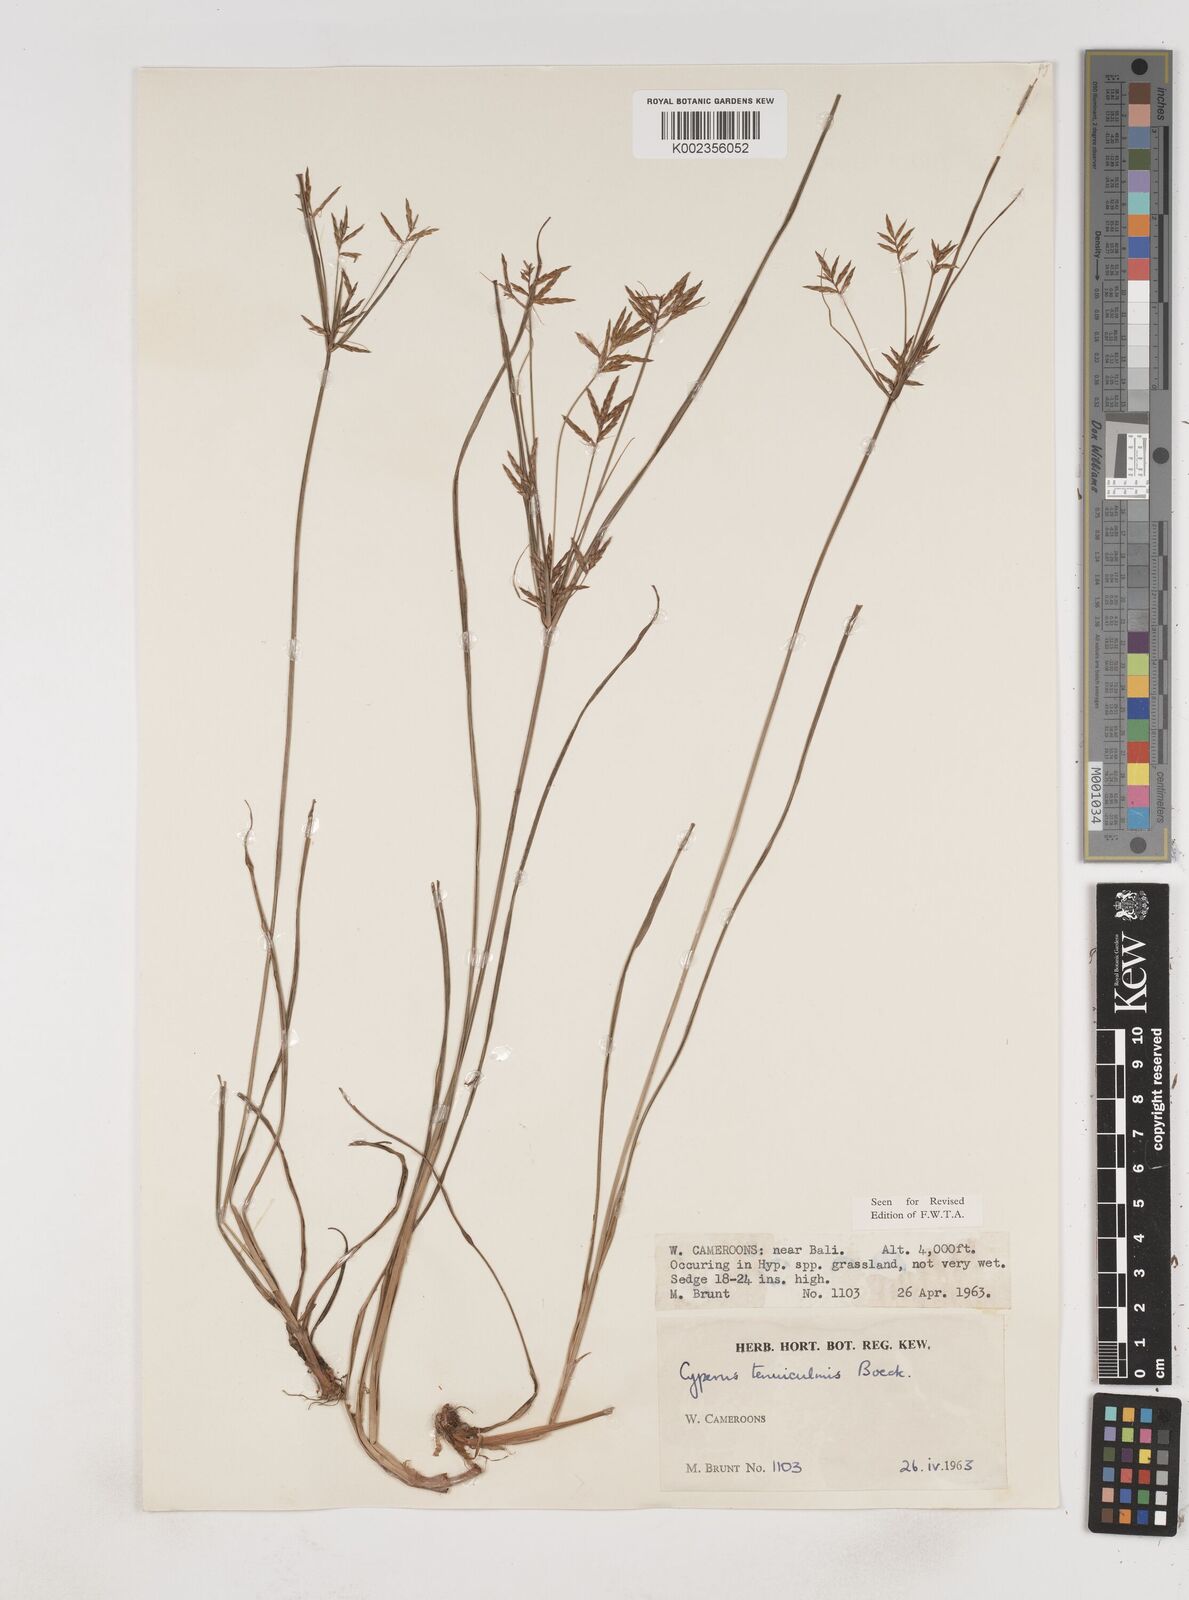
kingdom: Plantae
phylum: Tracheophyta
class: Liliopsida
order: Poales
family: Cyperaceae
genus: Cyperus
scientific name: Cyperus tenuiculmis
